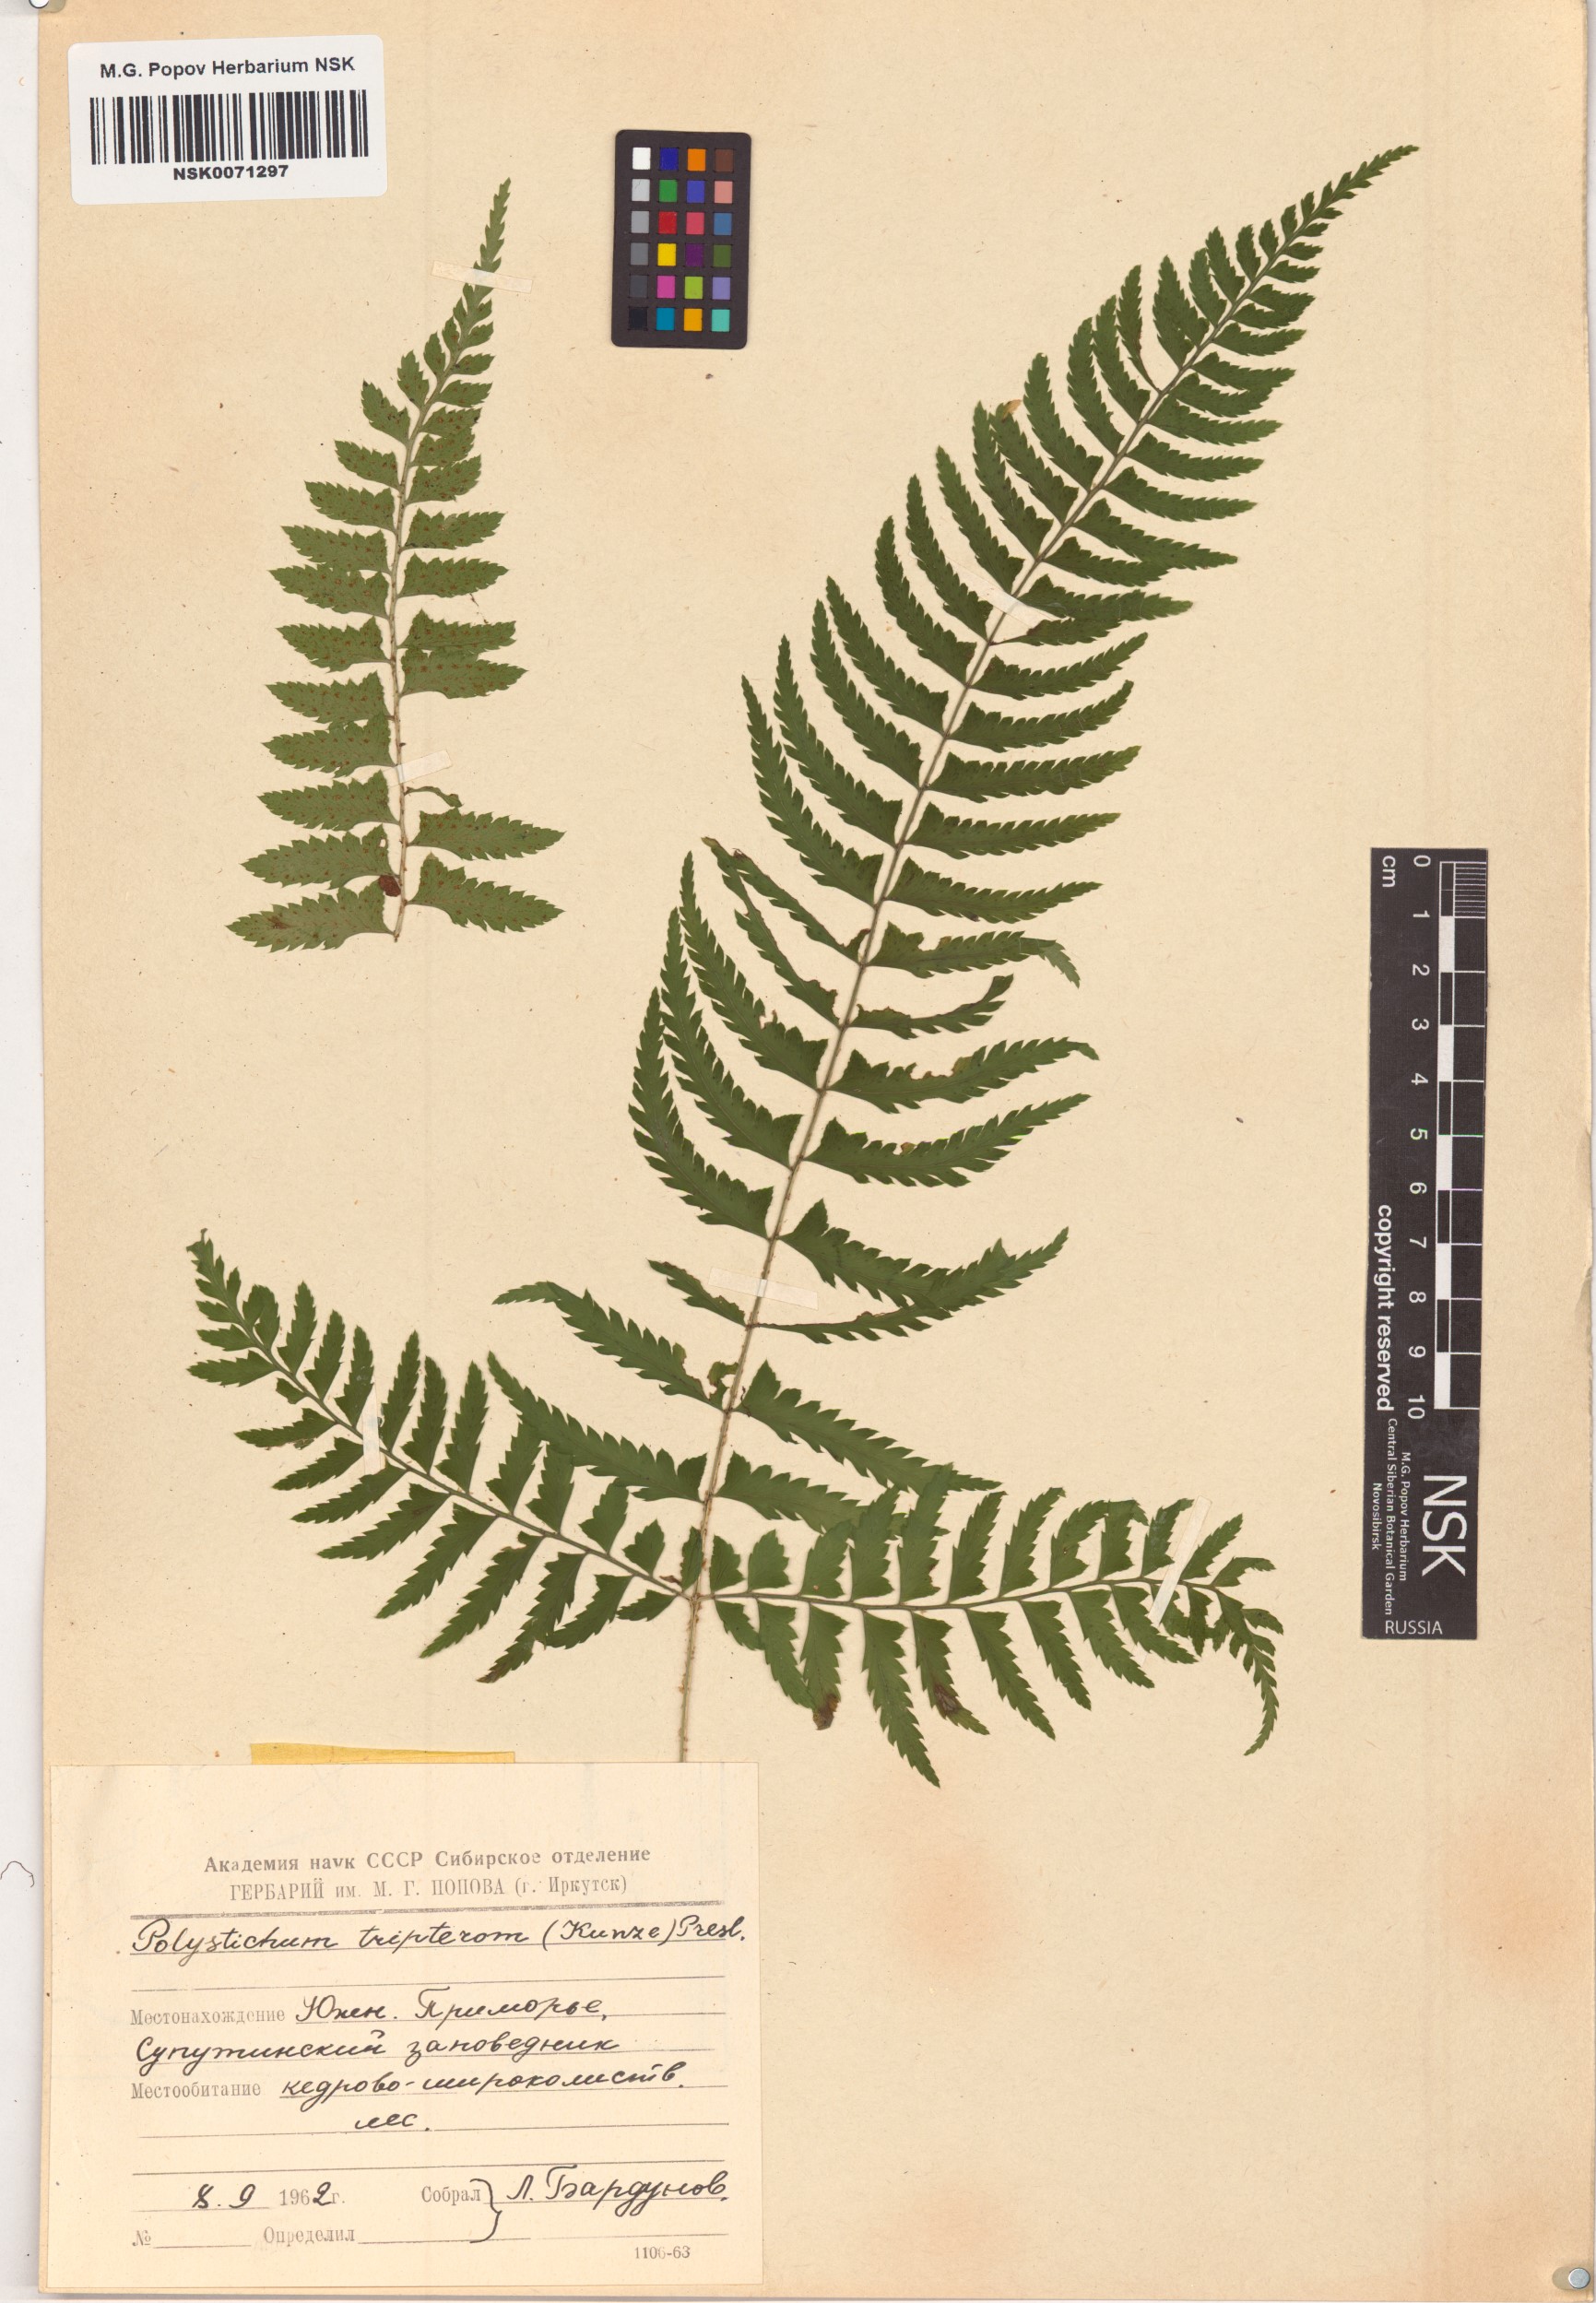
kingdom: Plantae
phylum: Tracheophyta
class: Polypodiopsida
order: Polypodiales
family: Dryopteridaceae
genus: Polystichum
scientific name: Polystichum tripteron
